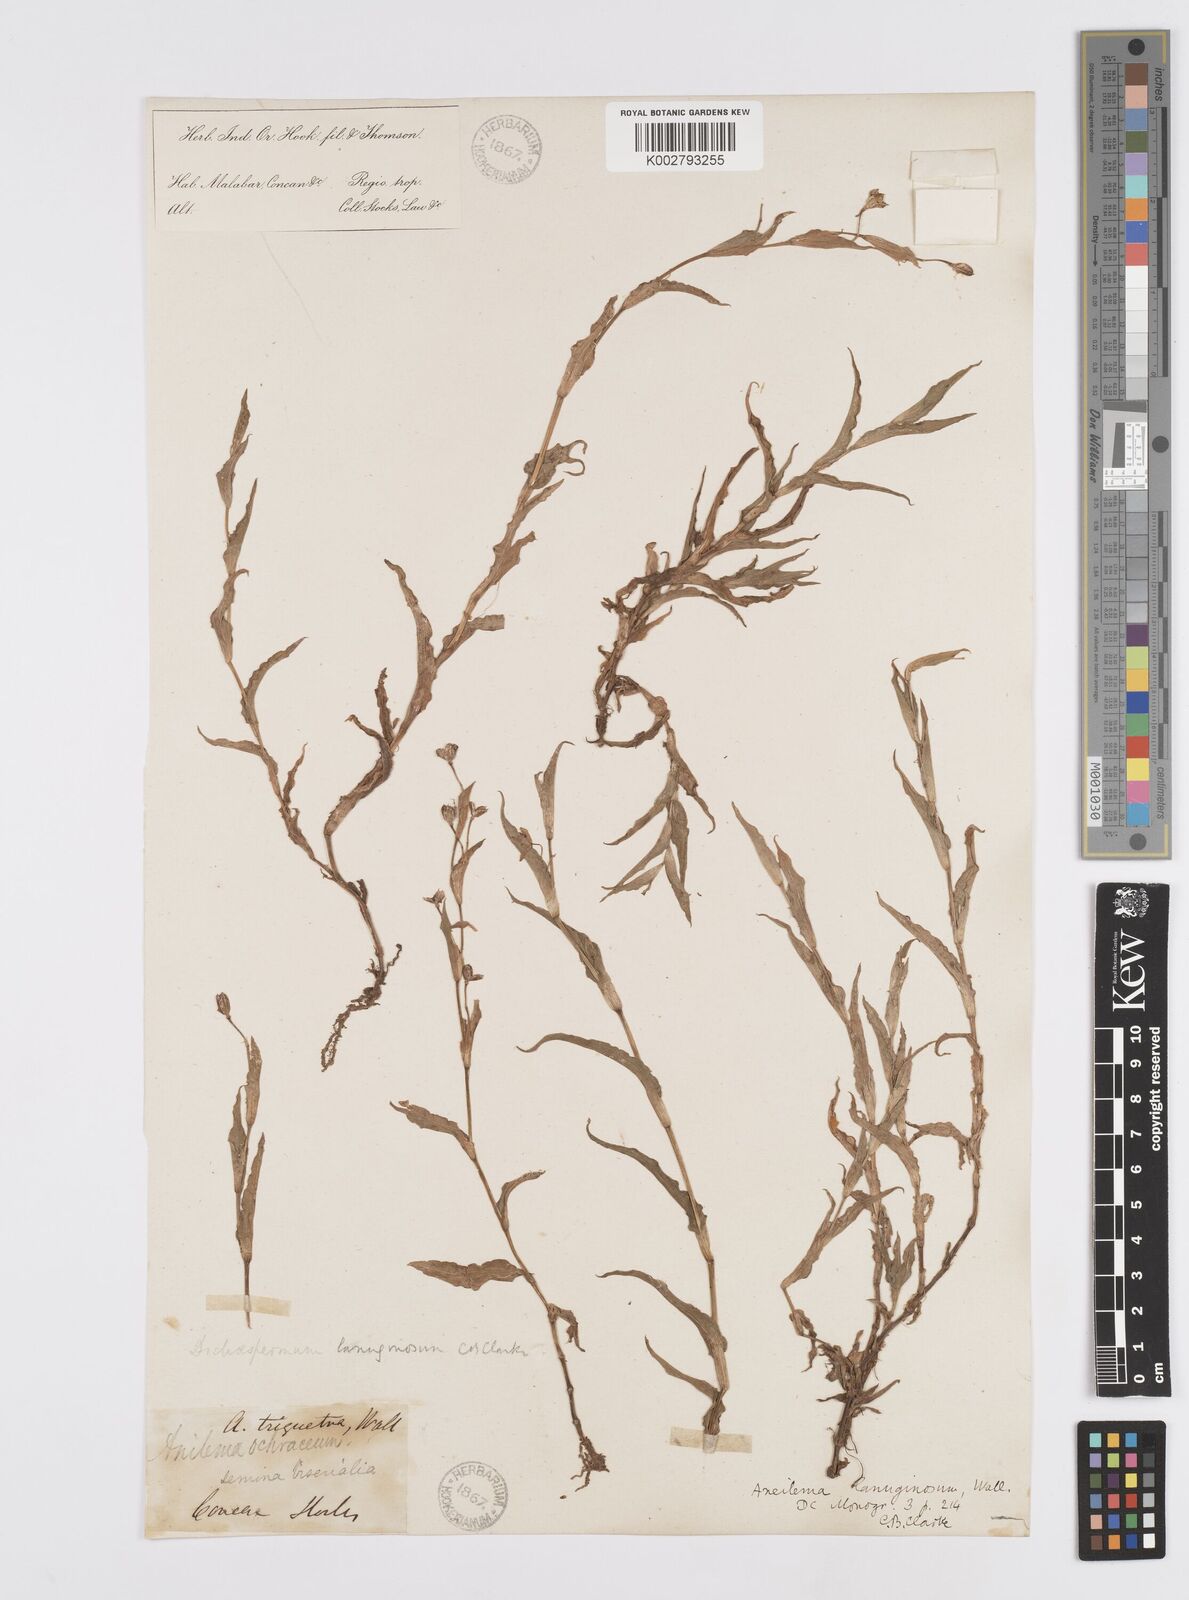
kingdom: Plantae
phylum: Tracheophyta
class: Liliopsida
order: Commelinales
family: Commelinaceae
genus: Murdannia
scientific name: Murdannia lanuginosa
